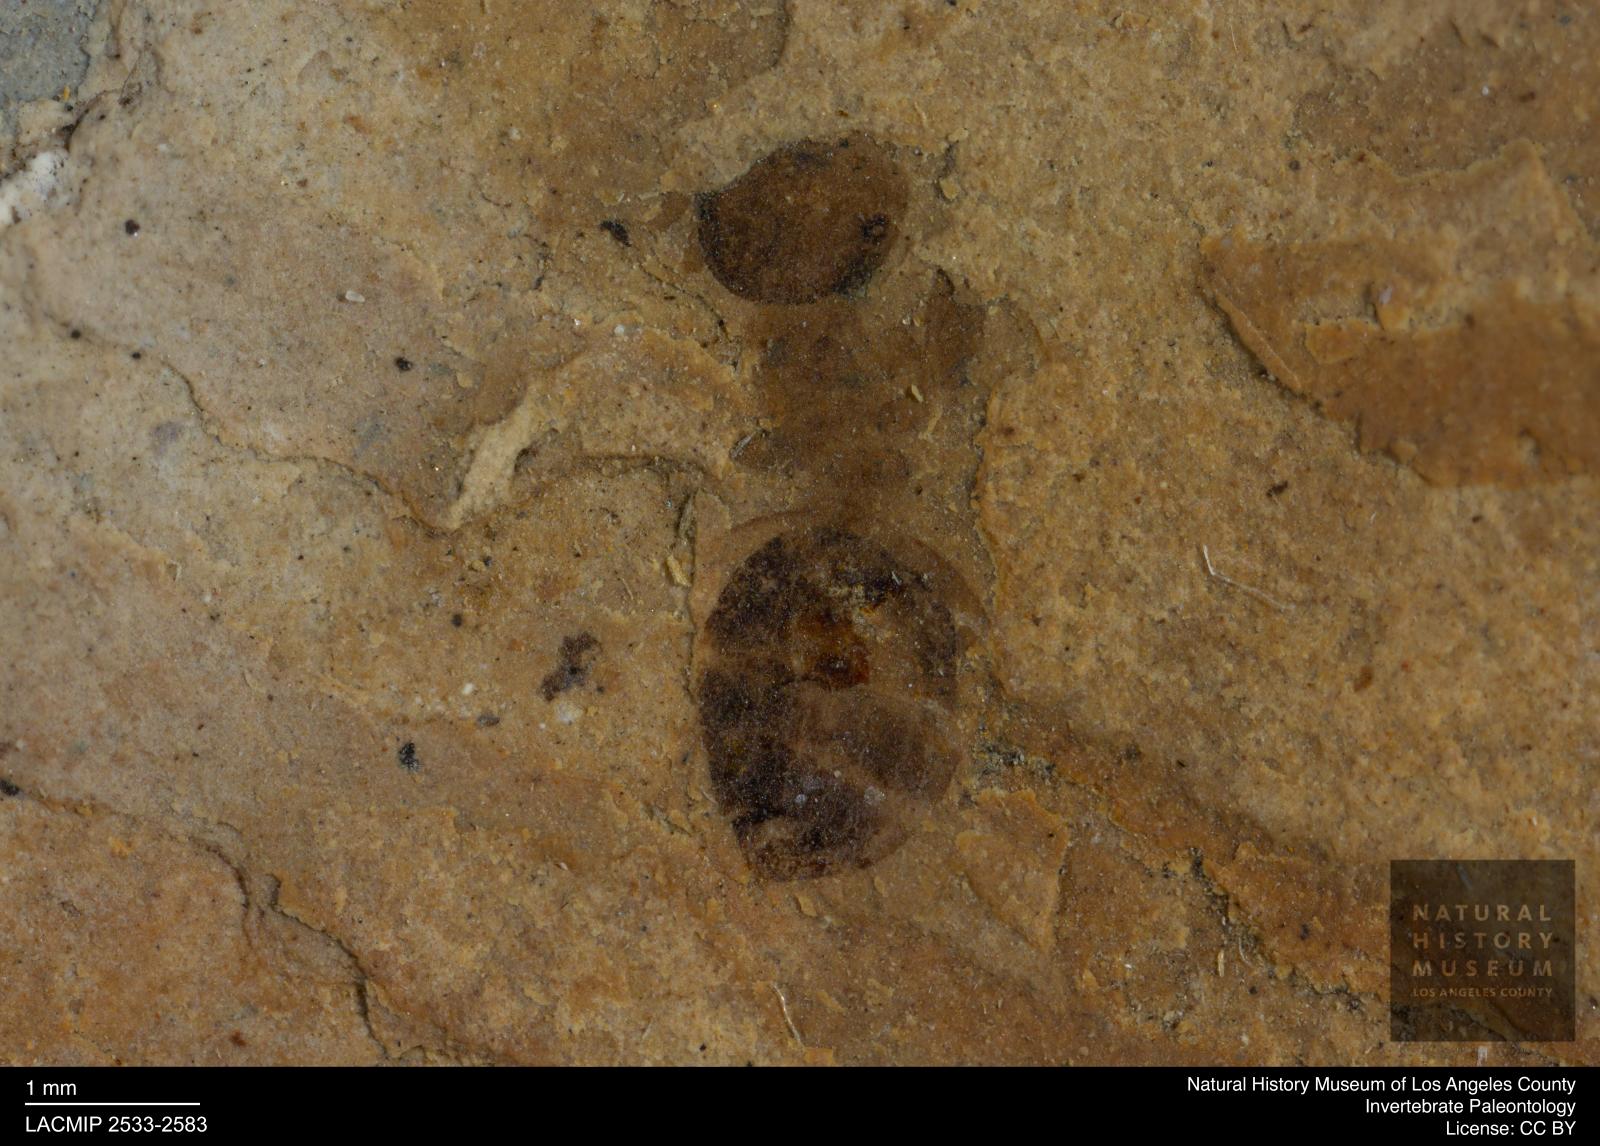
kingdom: Animalia
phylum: Arthropoda
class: Insecta
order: Hymenoptera
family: Formicidae
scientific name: Formicidae
